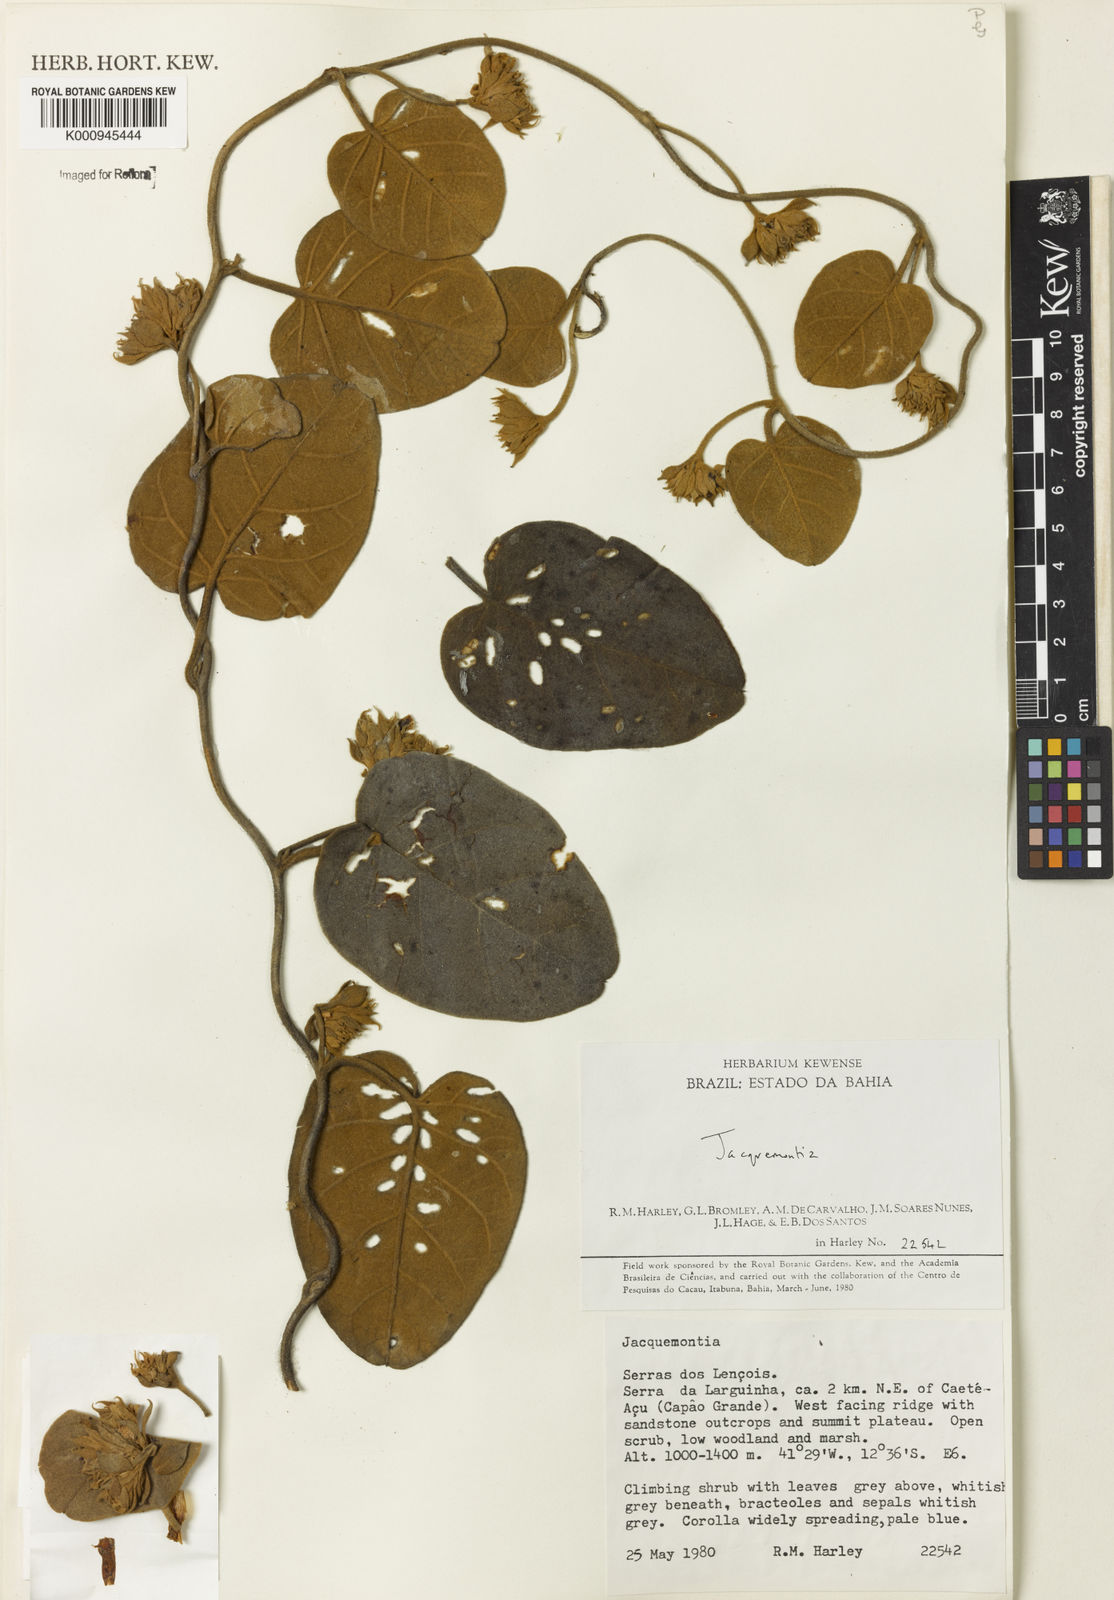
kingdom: Plantae
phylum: Tracheophyta
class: Magnoliopsida
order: Solanales
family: Convolvulaceae
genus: Jacquemontia
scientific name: Jacquemontia
